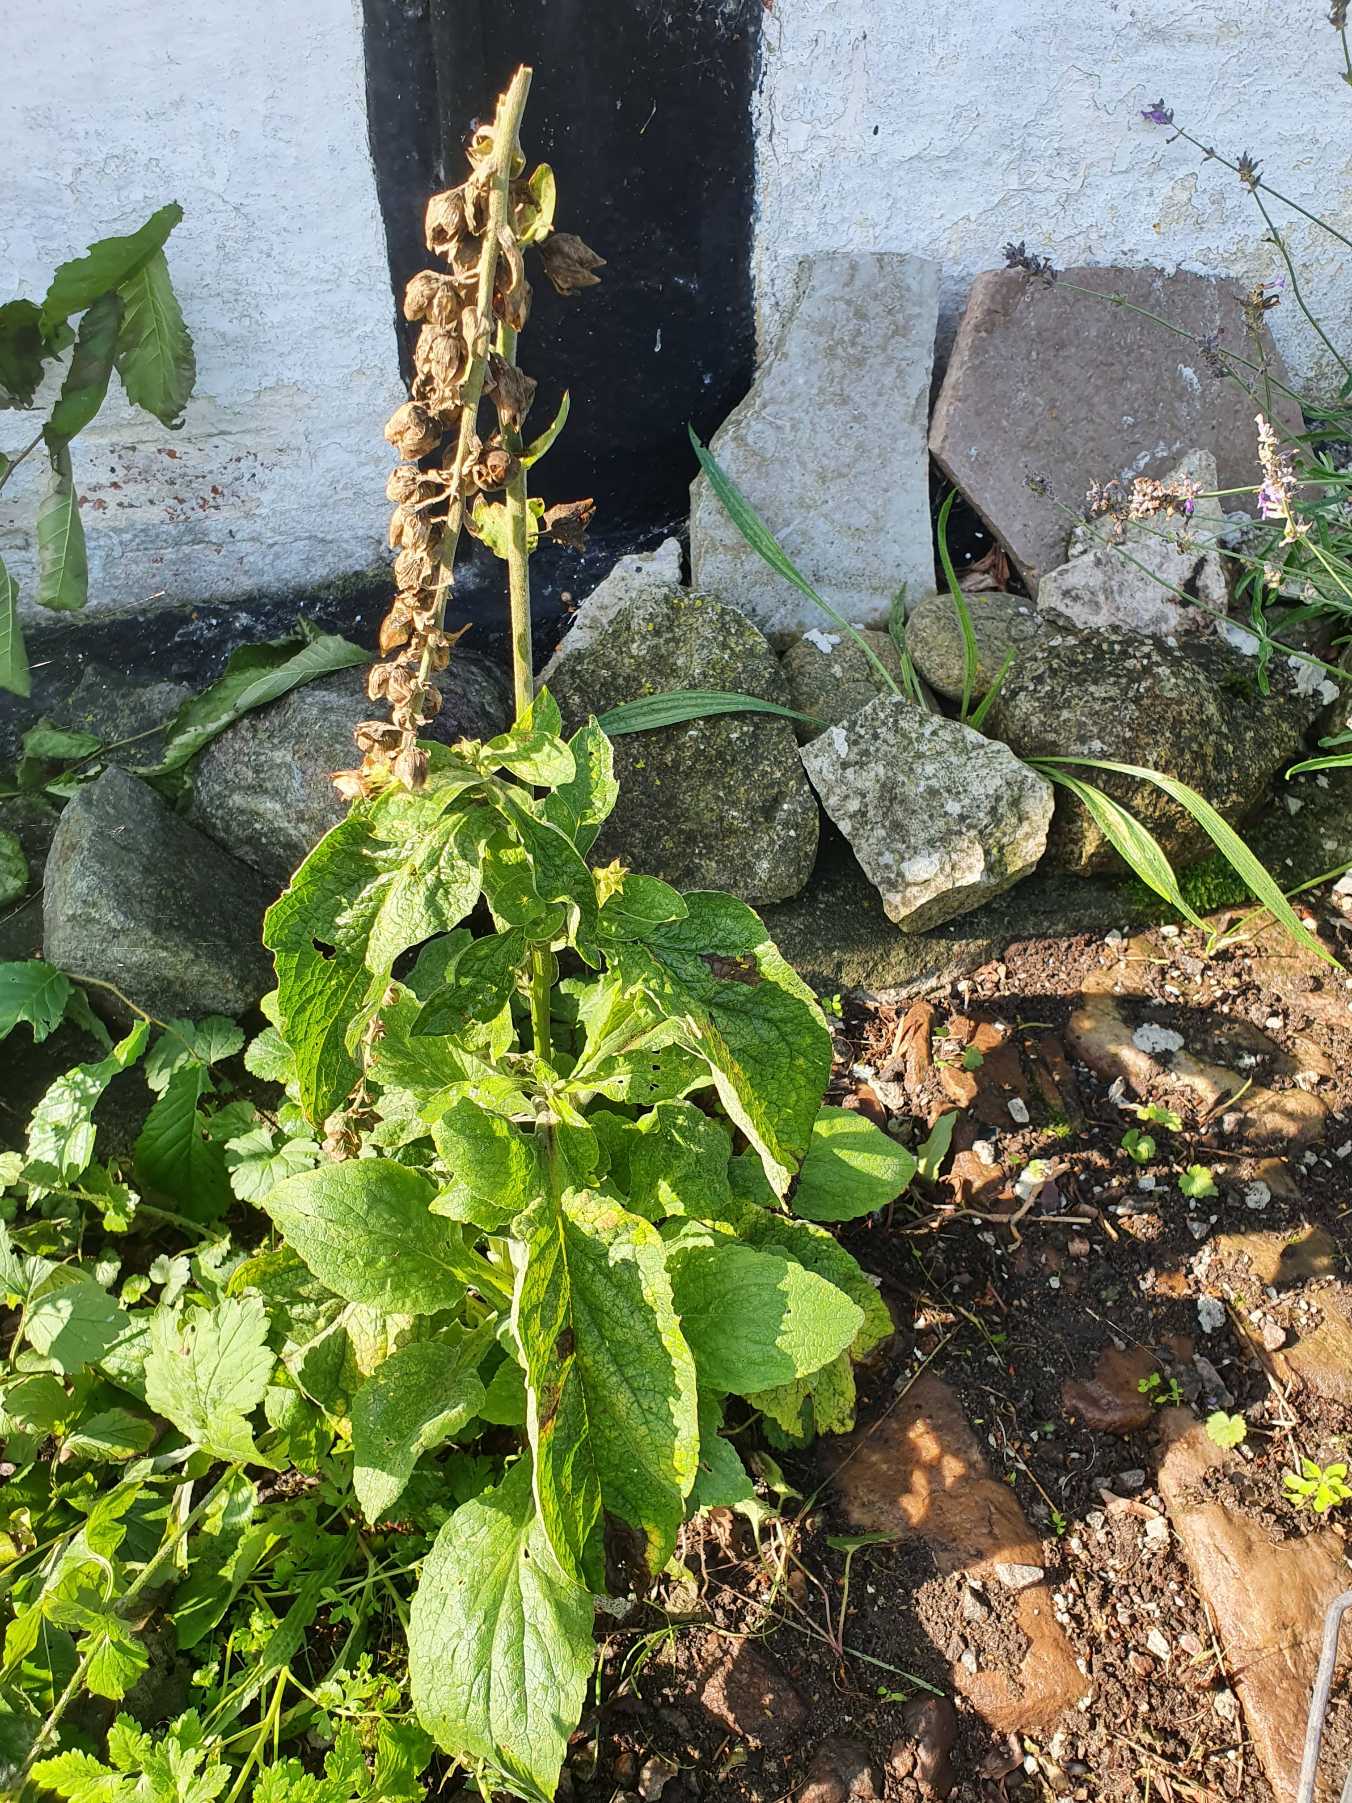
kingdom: Plantae
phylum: Tracheophyta
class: Magnoliopsida
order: Lamiales
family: Plantaginaceae
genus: Digitalis
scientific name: Digitalis purpurea
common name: Almindelig fingerbøl
